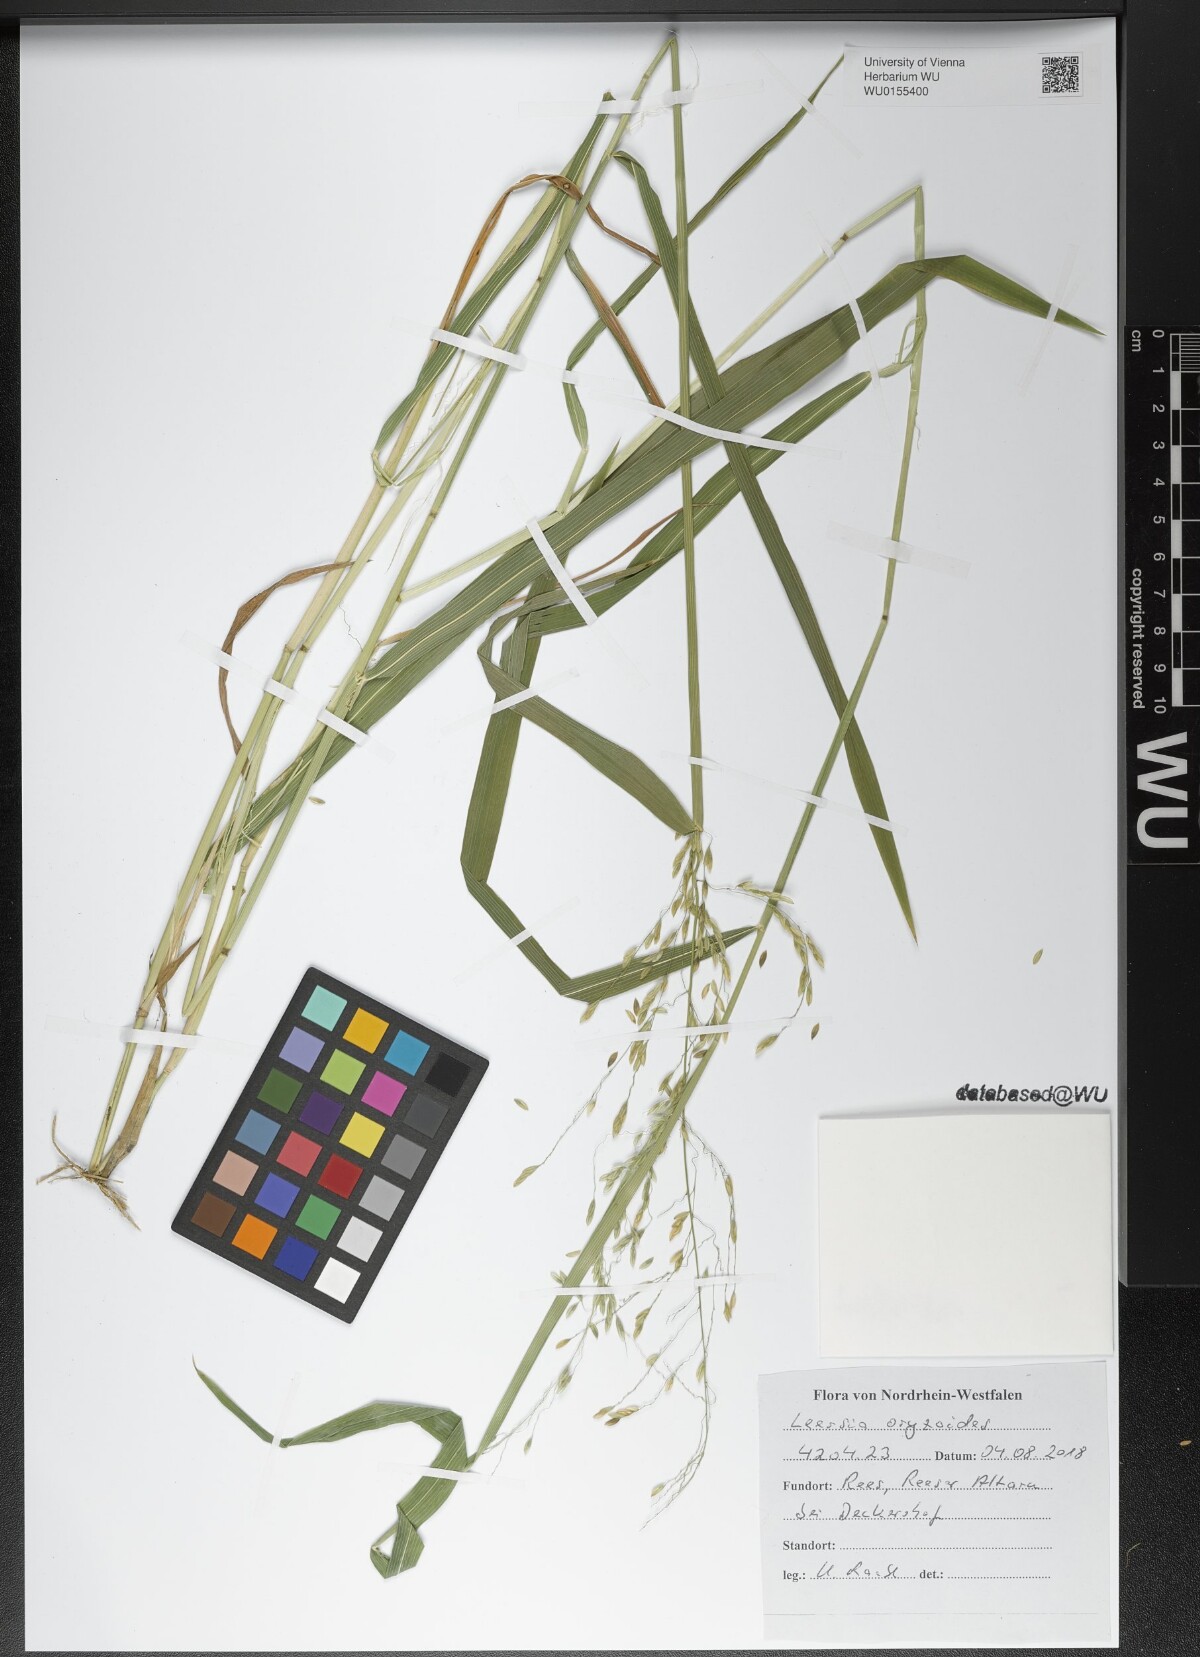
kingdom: Plantae
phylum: Tracheophyta
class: Liliopsida
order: Poales
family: Poaceae
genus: Leersia
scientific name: Leersia oryzoides
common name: Cut-grass
